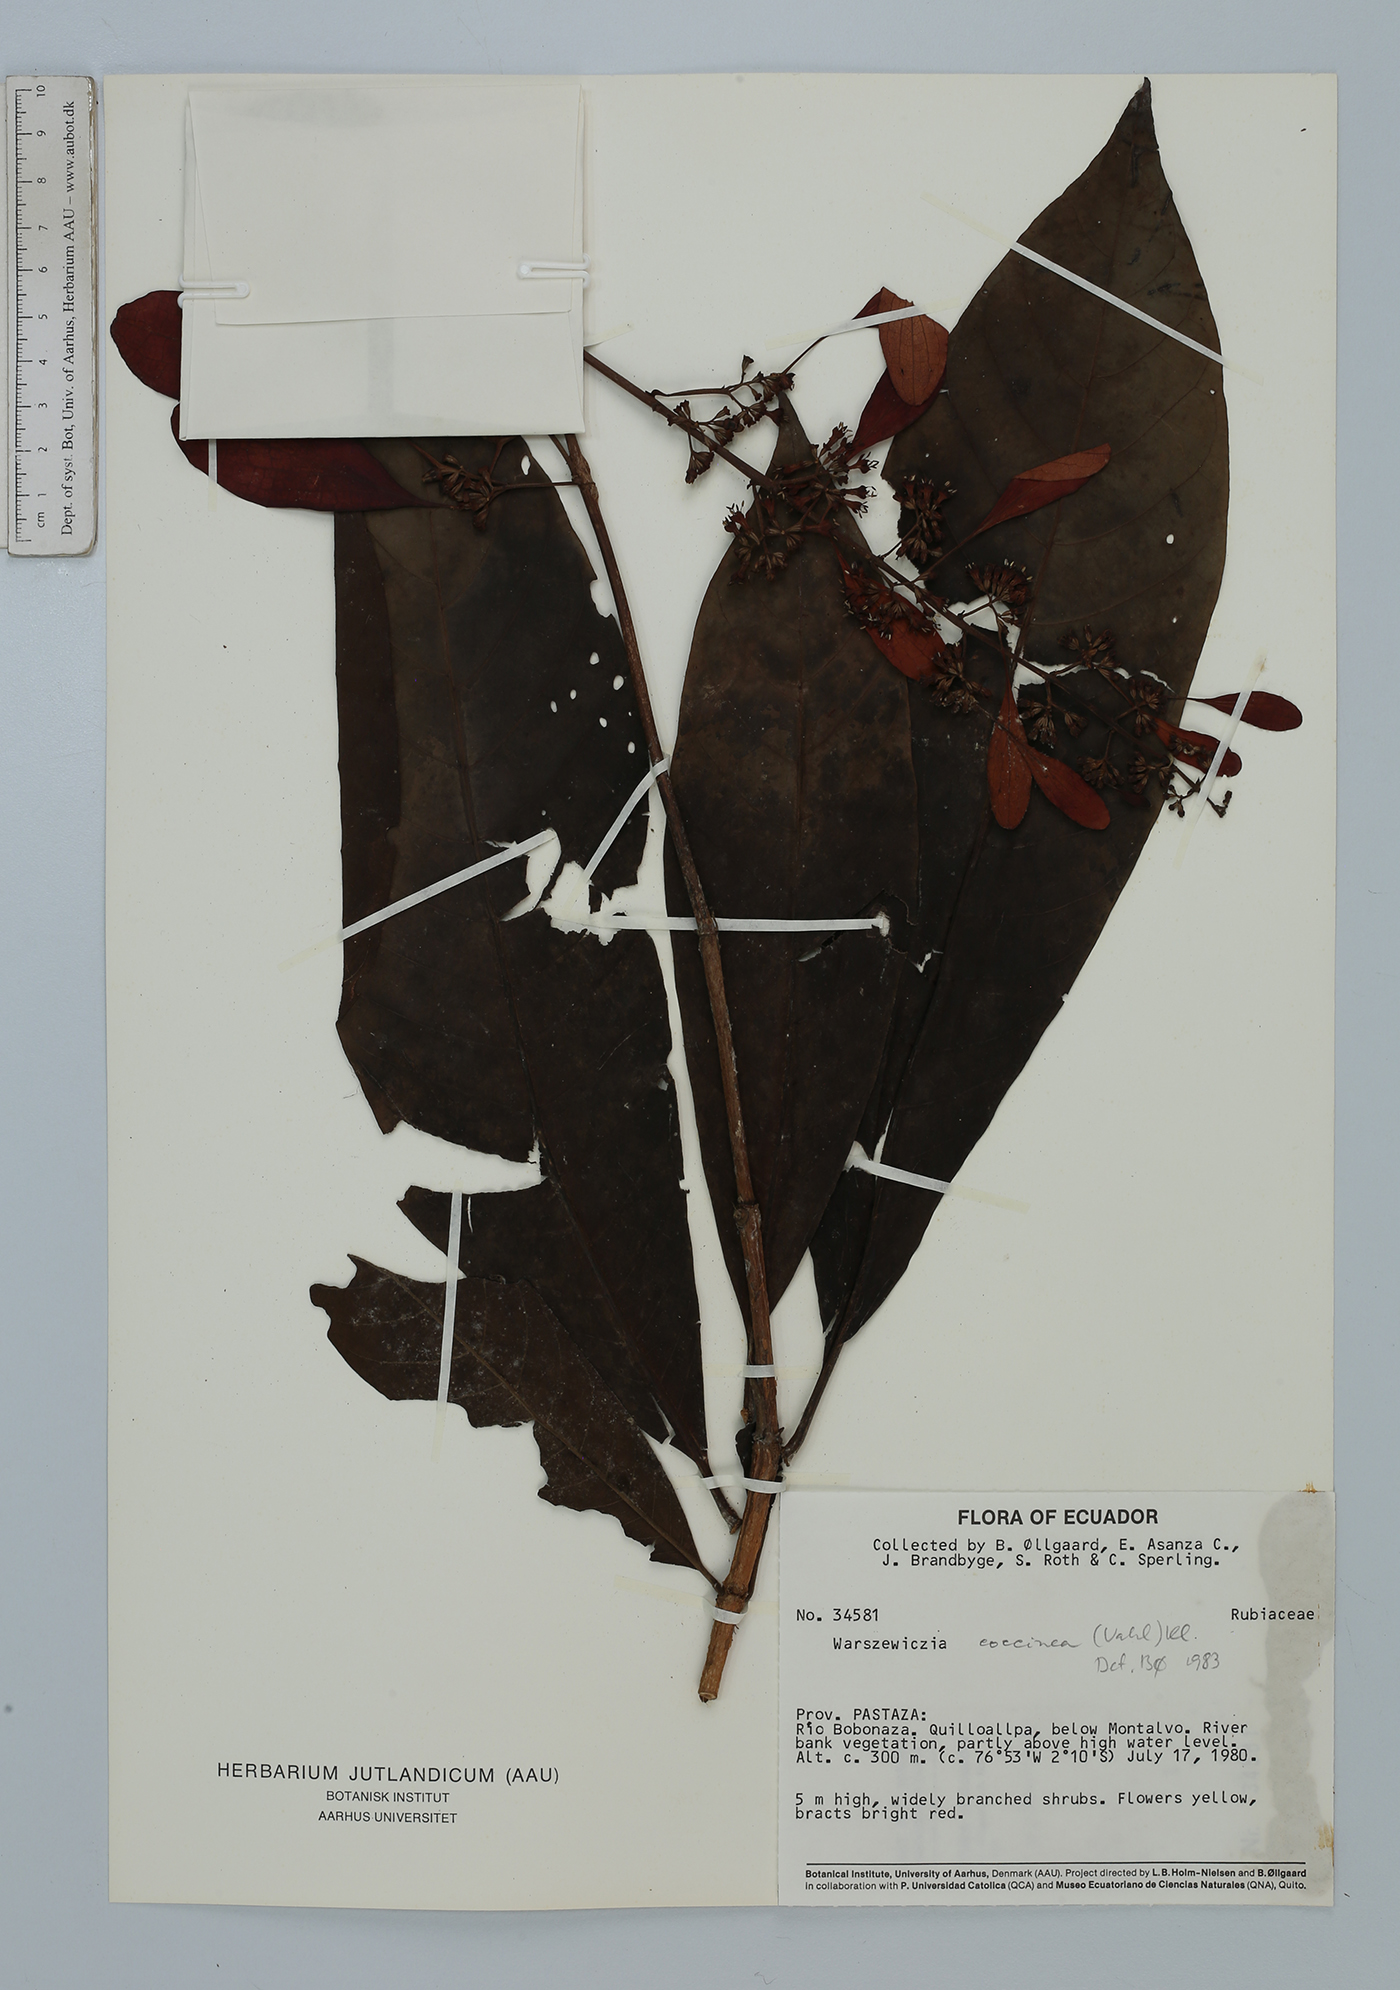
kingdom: Plantae
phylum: Tracheophyta
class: Magnoliopsida
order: Gentianales
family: Rubiaceae
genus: Warszewiczia
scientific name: Warszewiczia coccinea
